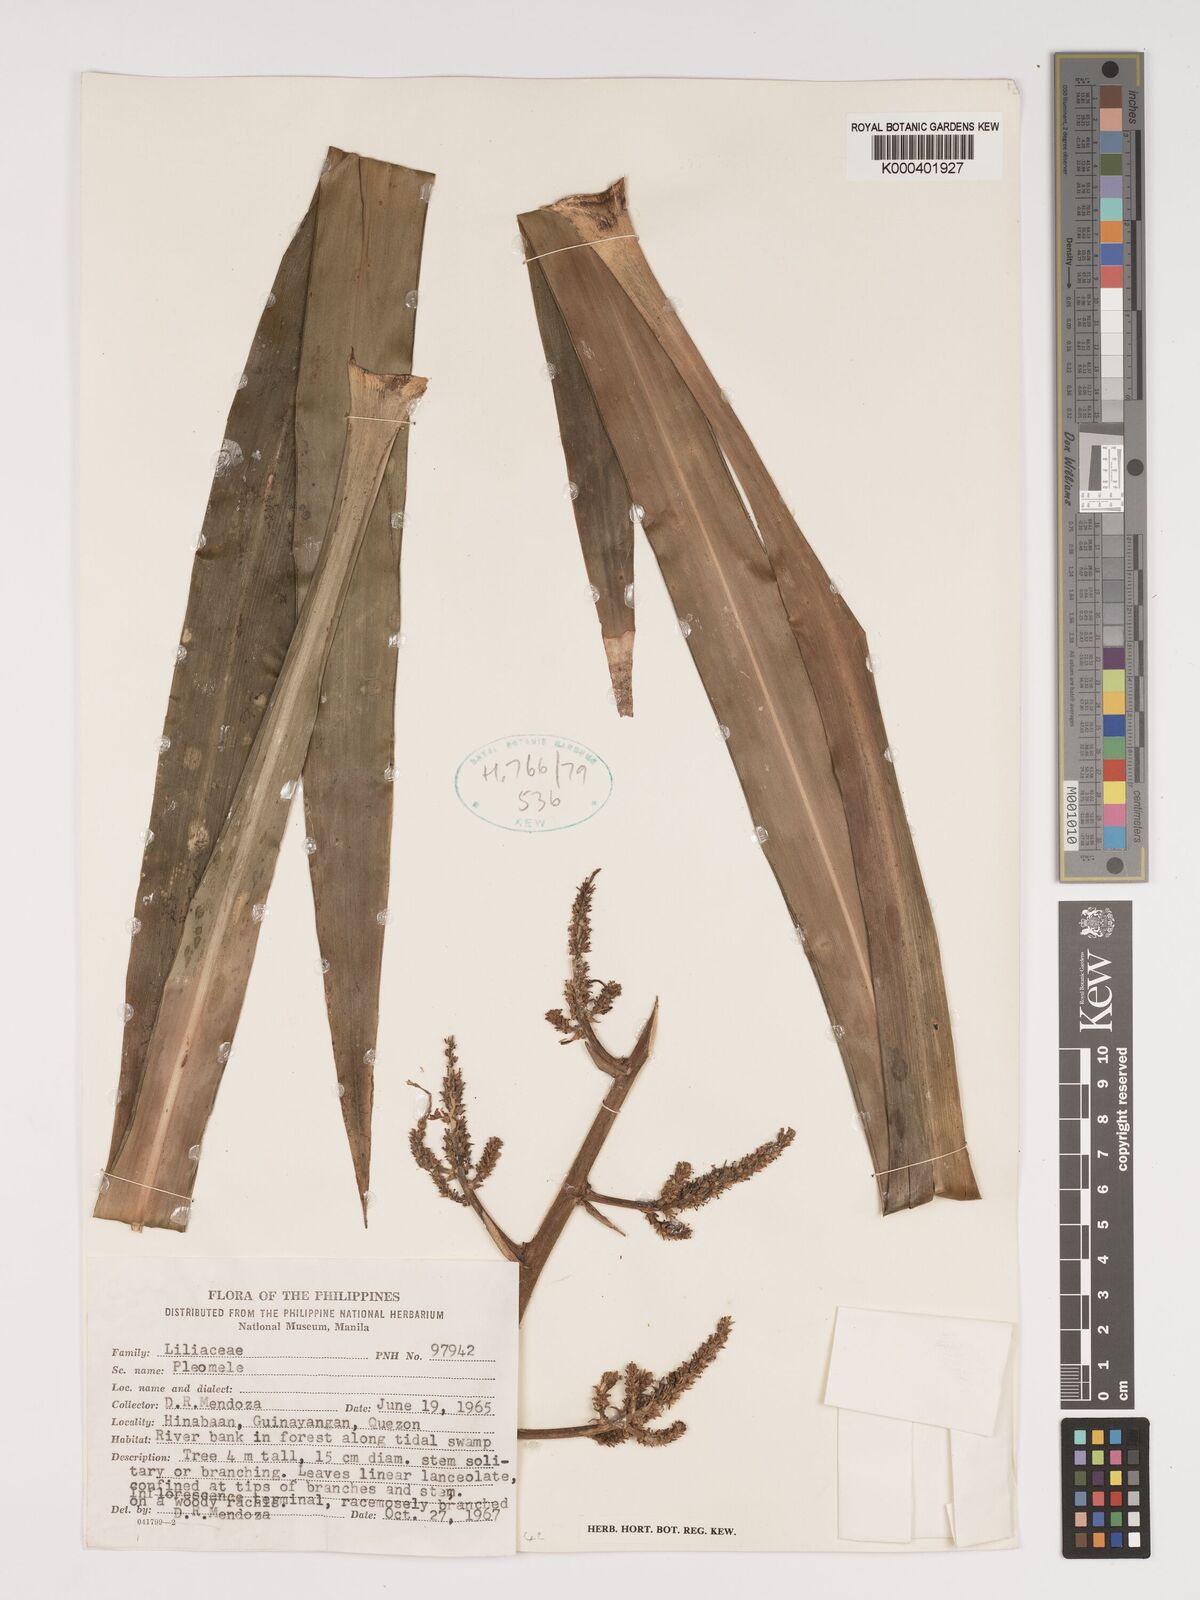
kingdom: Plantae
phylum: Tracheophyta
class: Liliopsida
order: Asparagales
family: Asparagaceae
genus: Dracaena
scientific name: Dracaena
